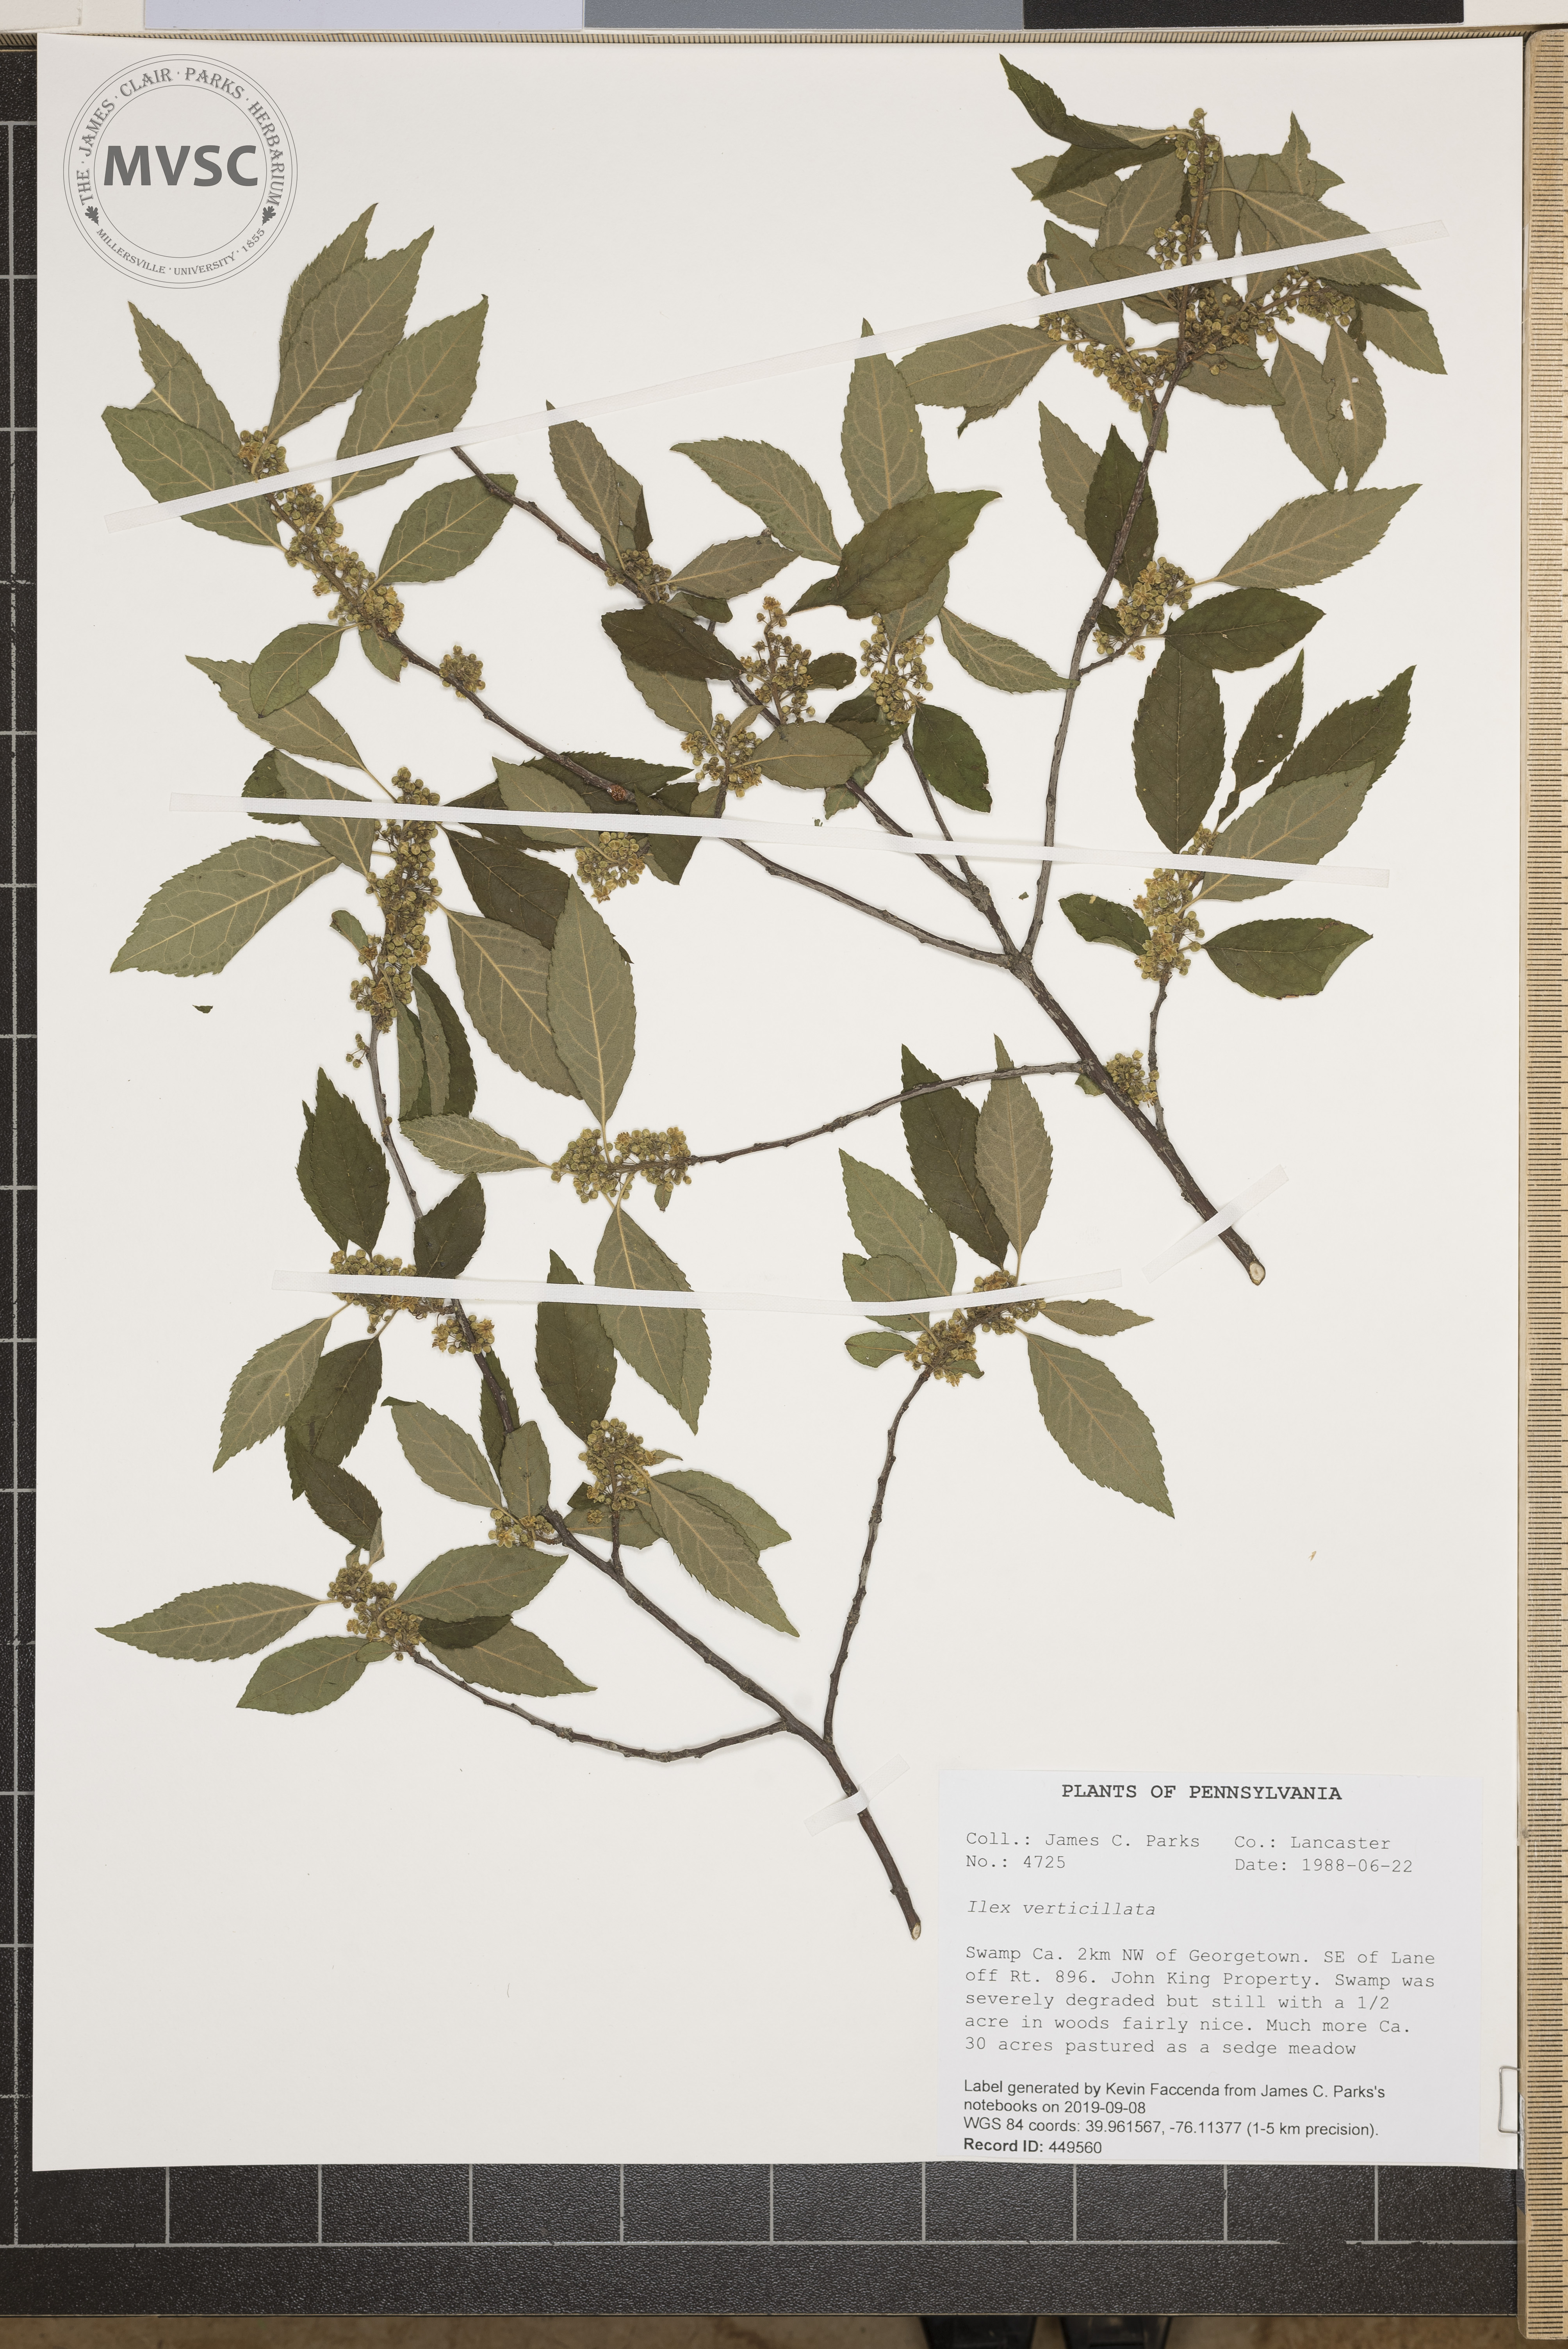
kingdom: Plantae
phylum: Tracheophyta
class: Magnoliopsida
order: Aquifoliales
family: Aquifoliaceae
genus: Ilex
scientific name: Ilex verticillata
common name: Virginia winterberry
